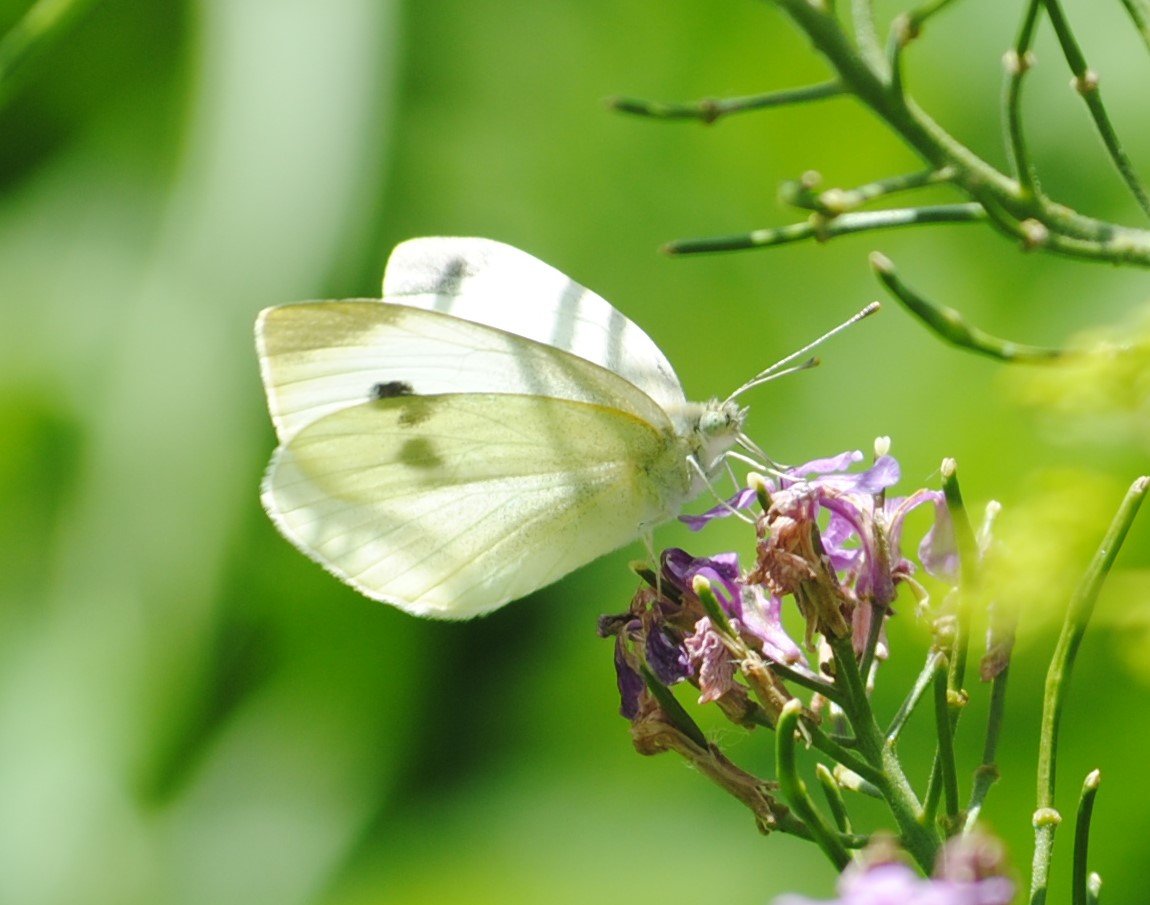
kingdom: Animalia
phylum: Arthropoda
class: Insecta
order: Lepidoptera
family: Pieridae
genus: Pieris
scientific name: Pieris rapae
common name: Cabbage White
